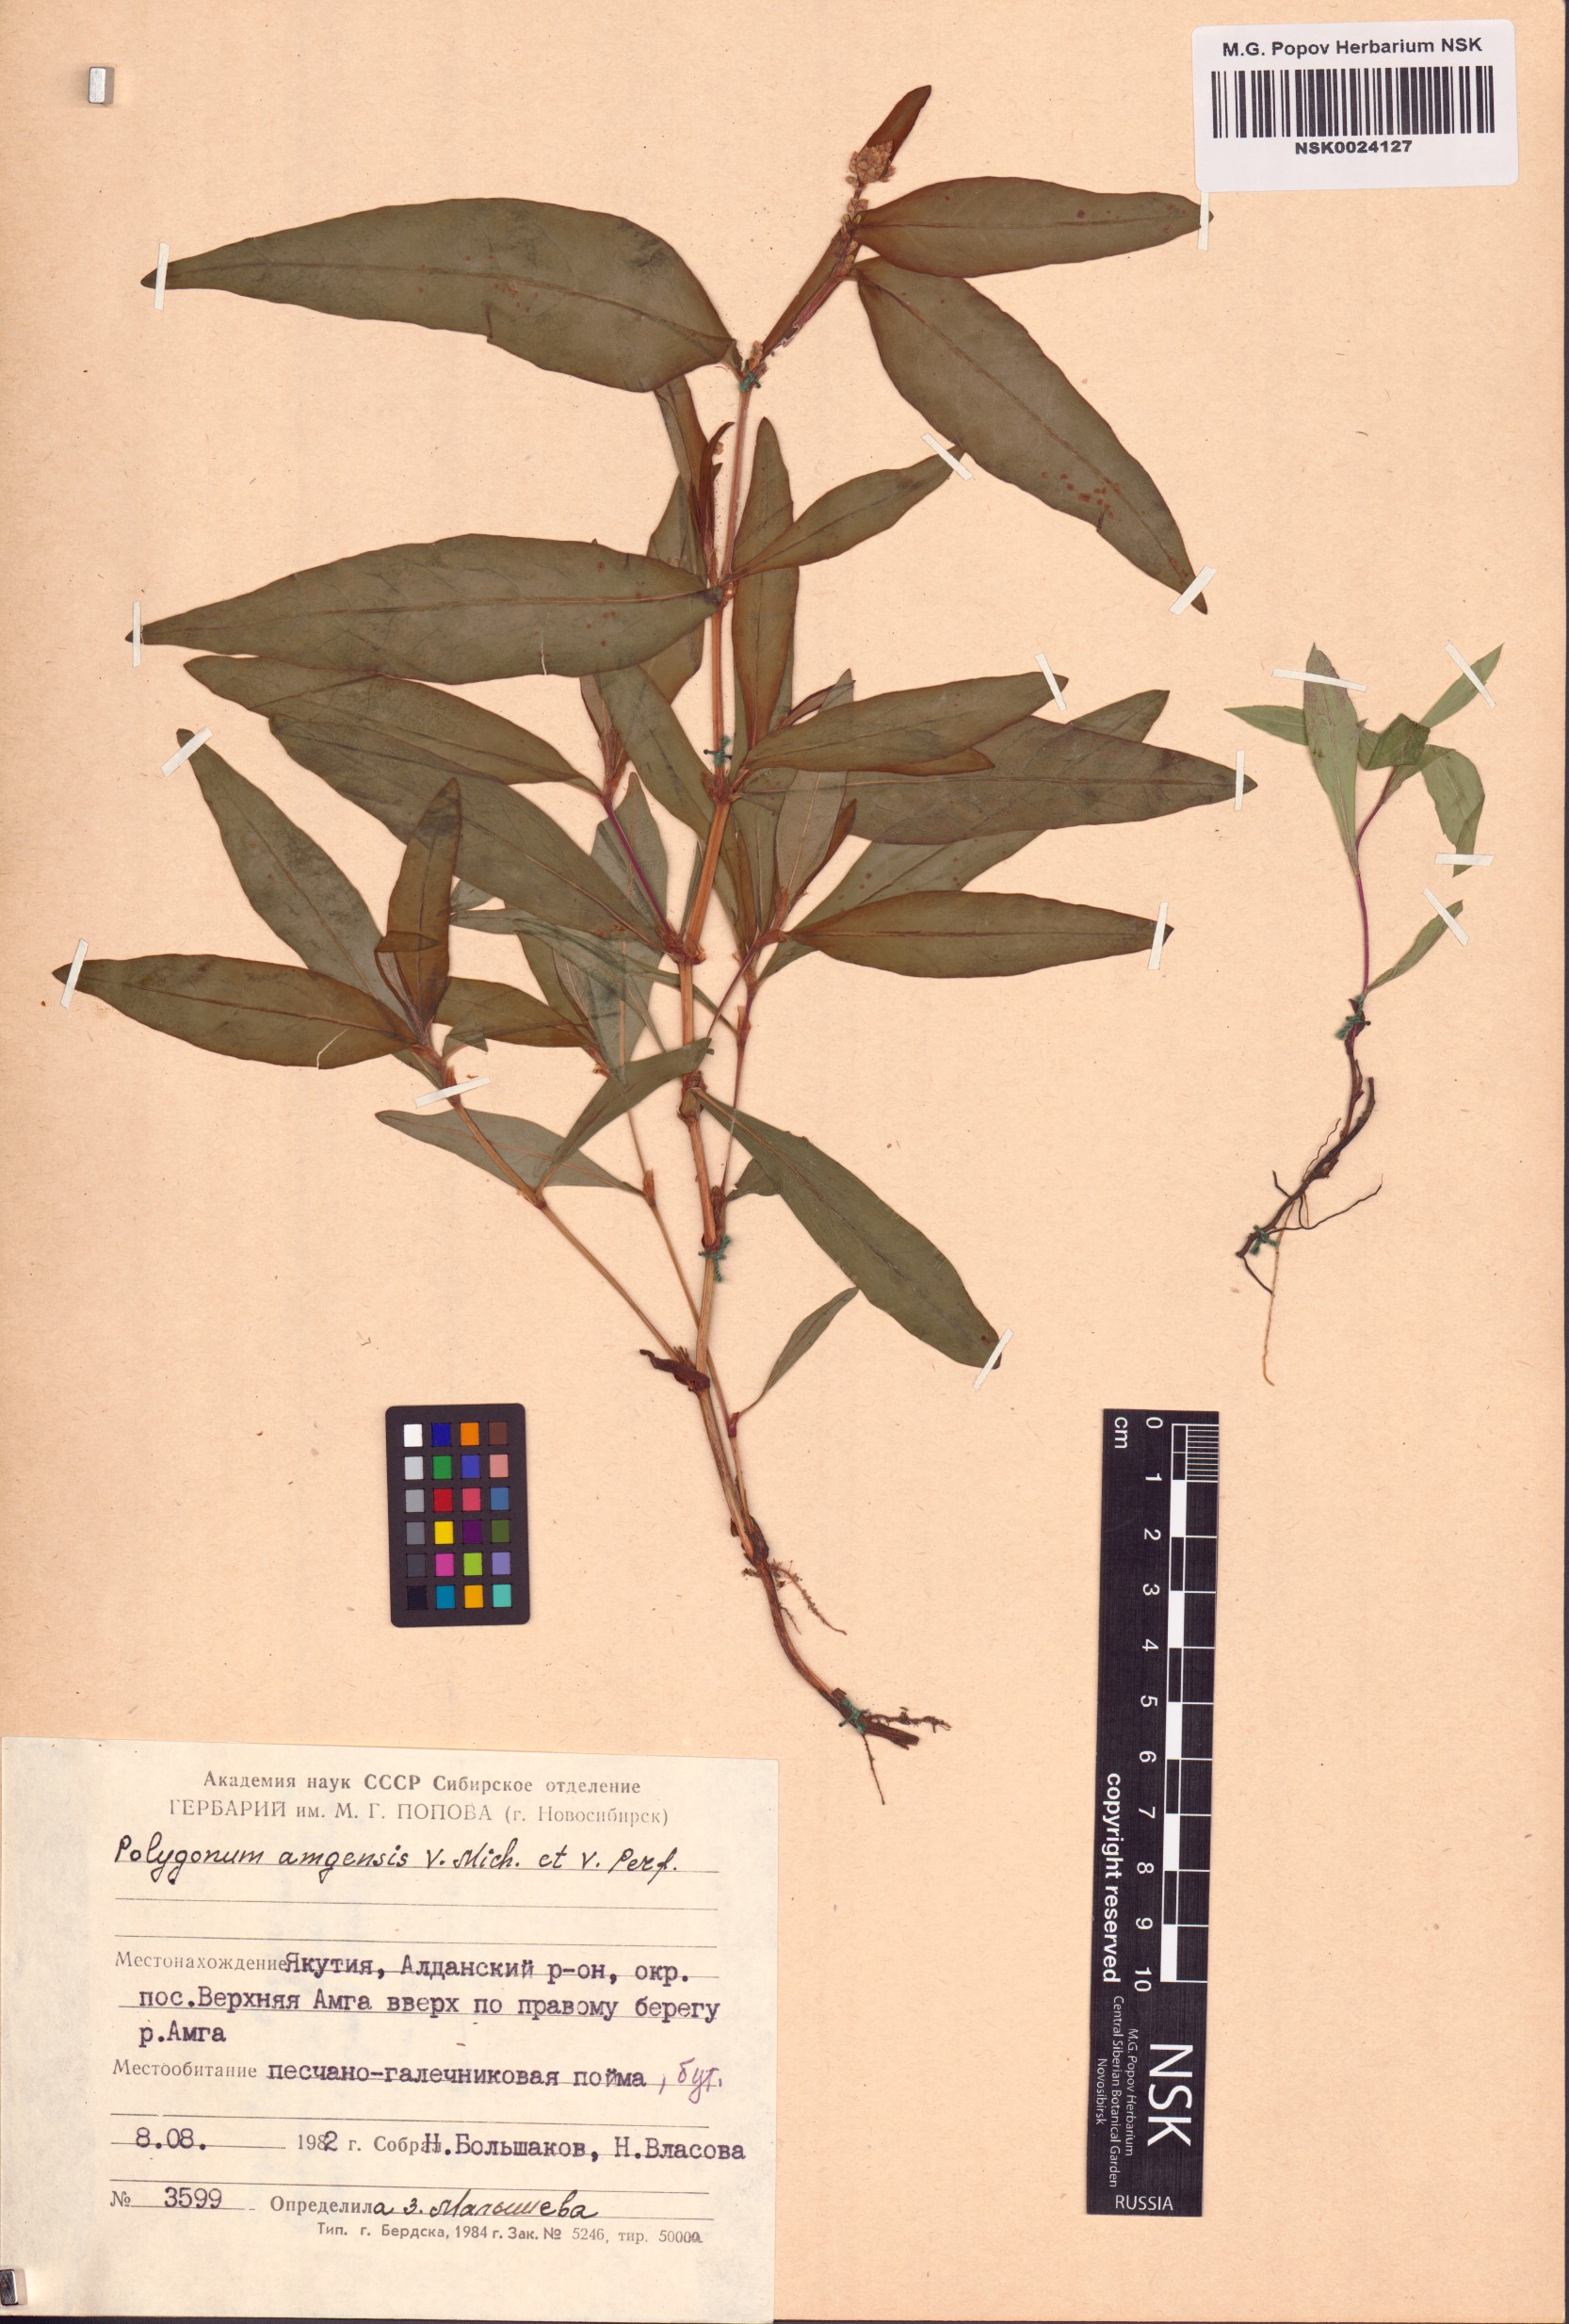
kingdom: Plantae
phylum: Tracheophyta
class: Magnoliopsida
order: Caryophyllales
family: Polygonaceae
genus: Polygonum
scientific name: Polygonum amgense
